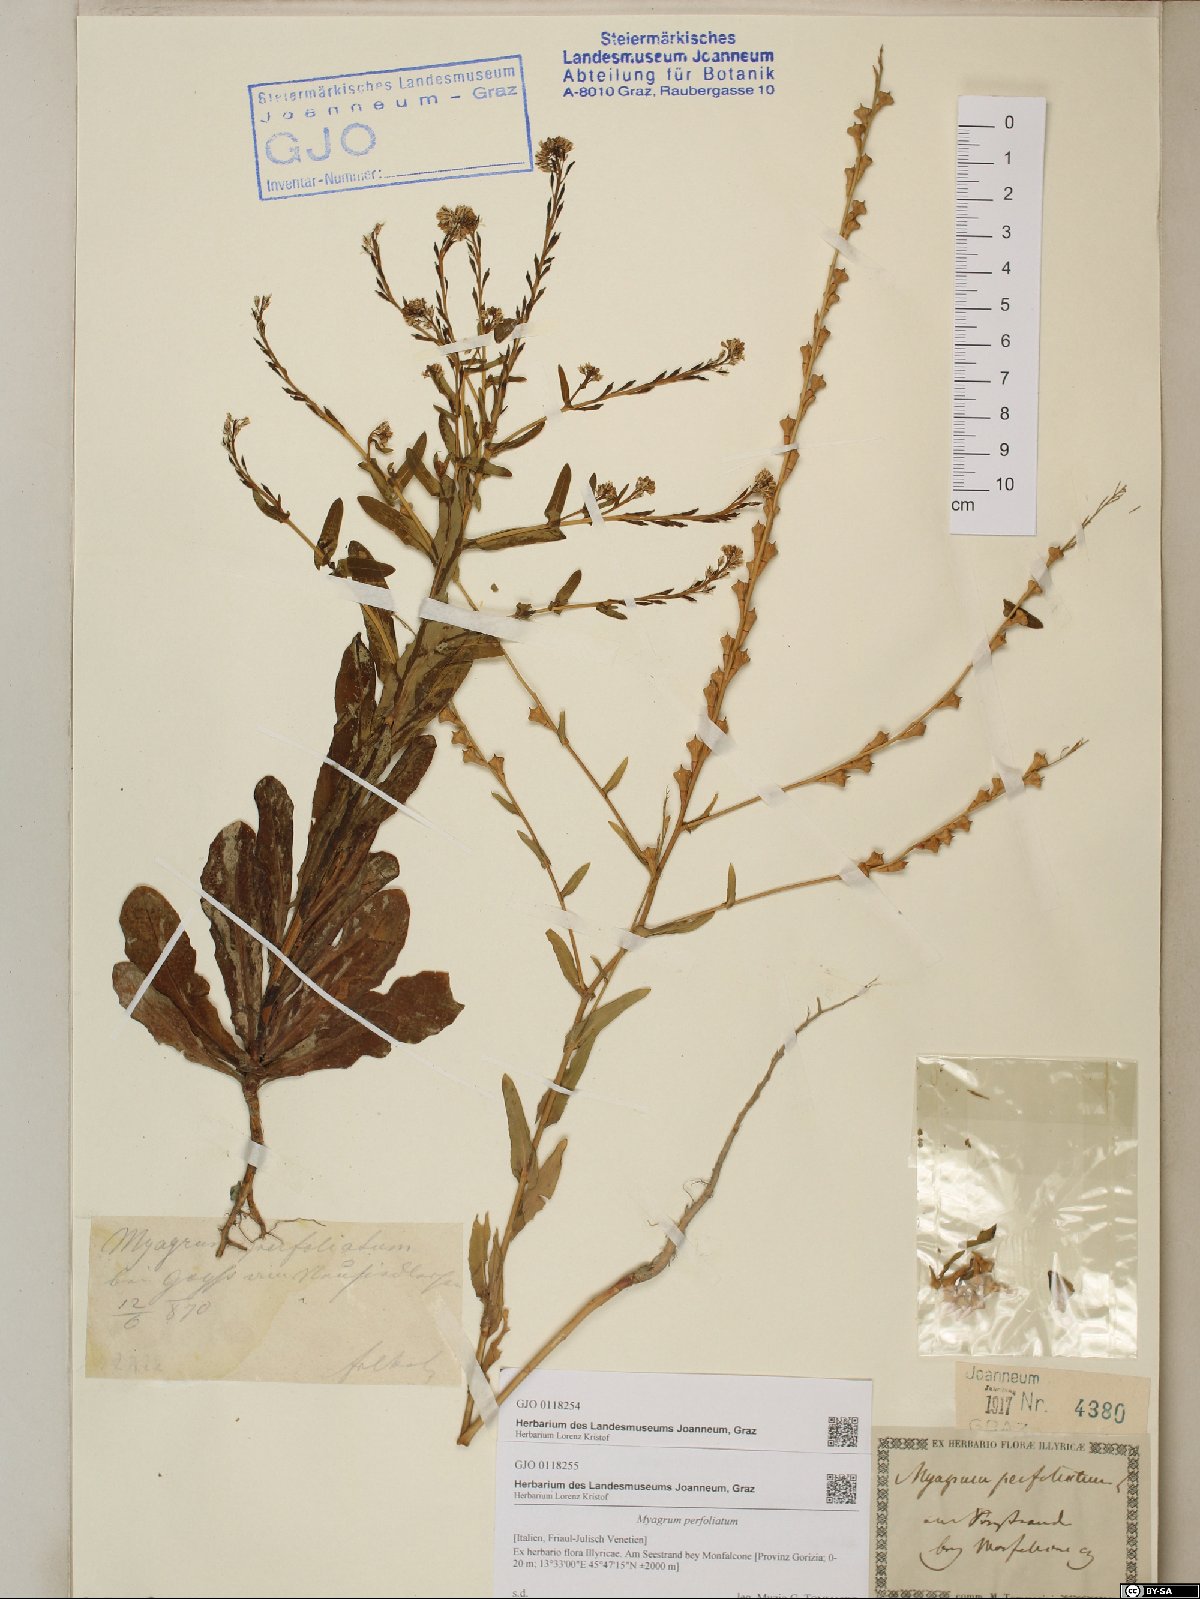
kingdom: Plantae
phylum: Tracheophyta
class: Magnoliopsida
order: Brassicales
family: Brassicaceae
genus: Myagrum
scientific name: Myagrum perfoliatum
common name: Mitre cress
